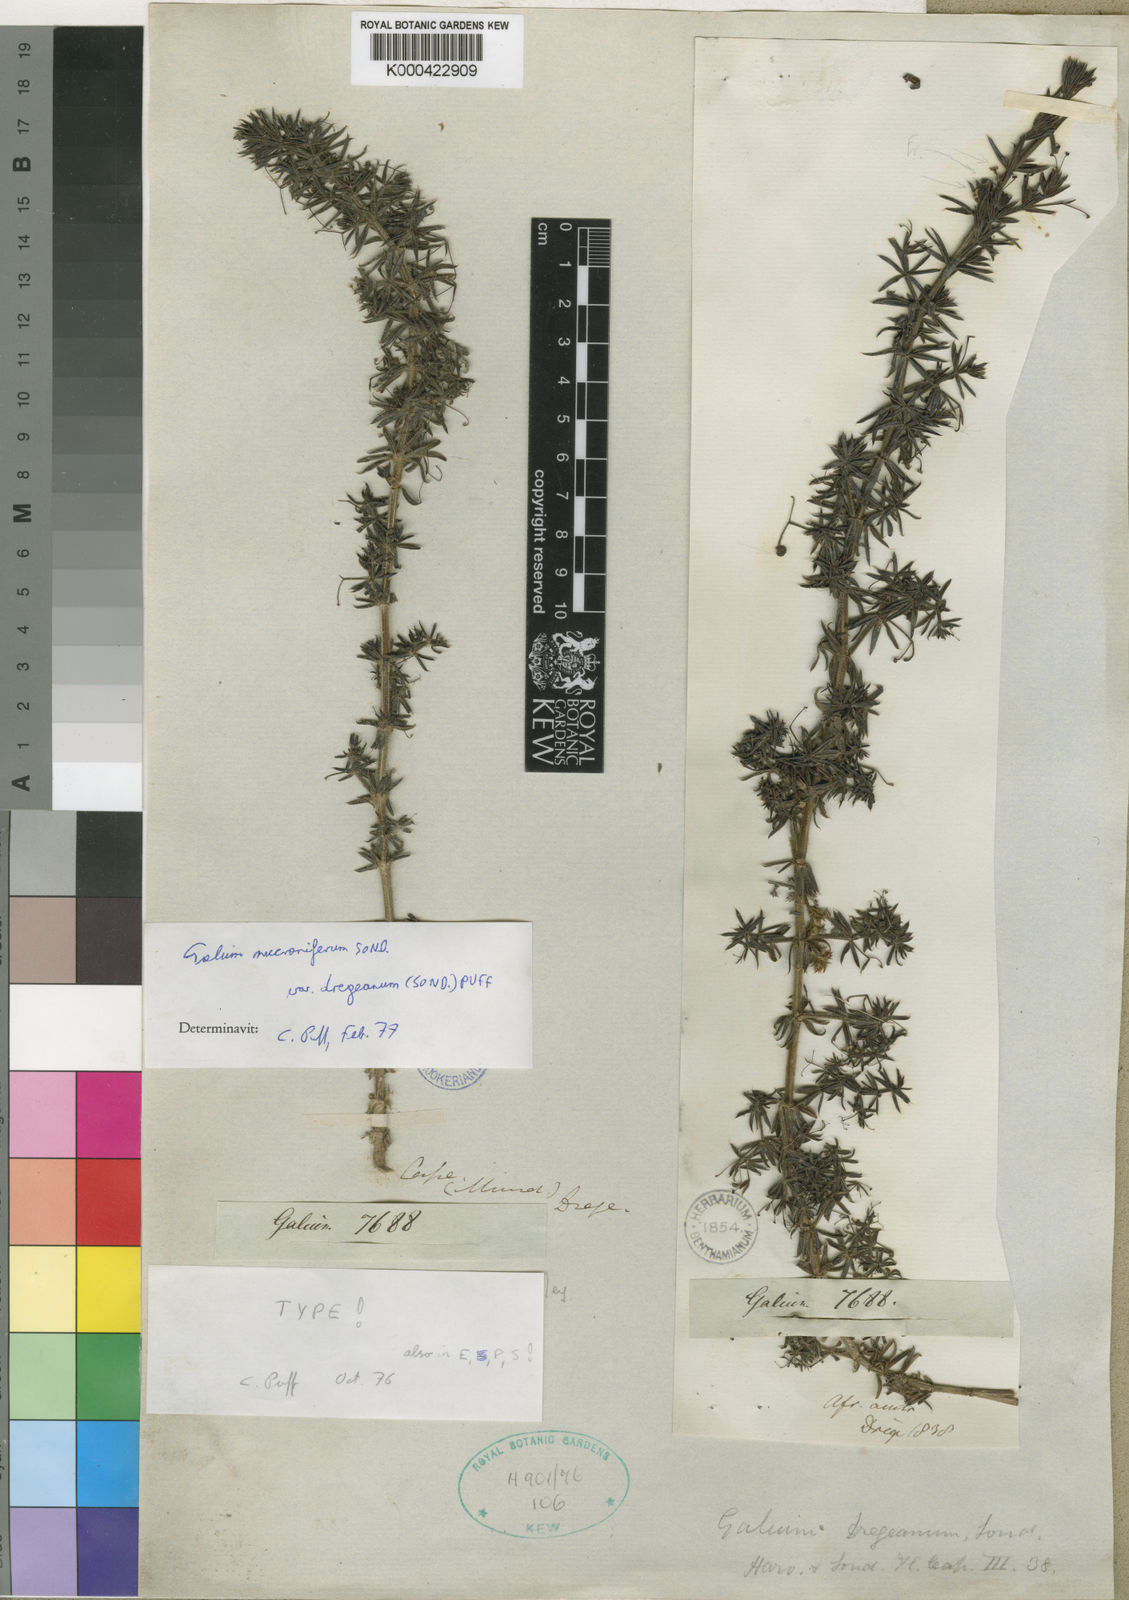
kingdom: Plantae
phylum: Tracheophyta
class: Magnoliopsida
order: Gentianales
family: Rubiaceae
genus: Galium
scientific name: Galium mucroniferum
